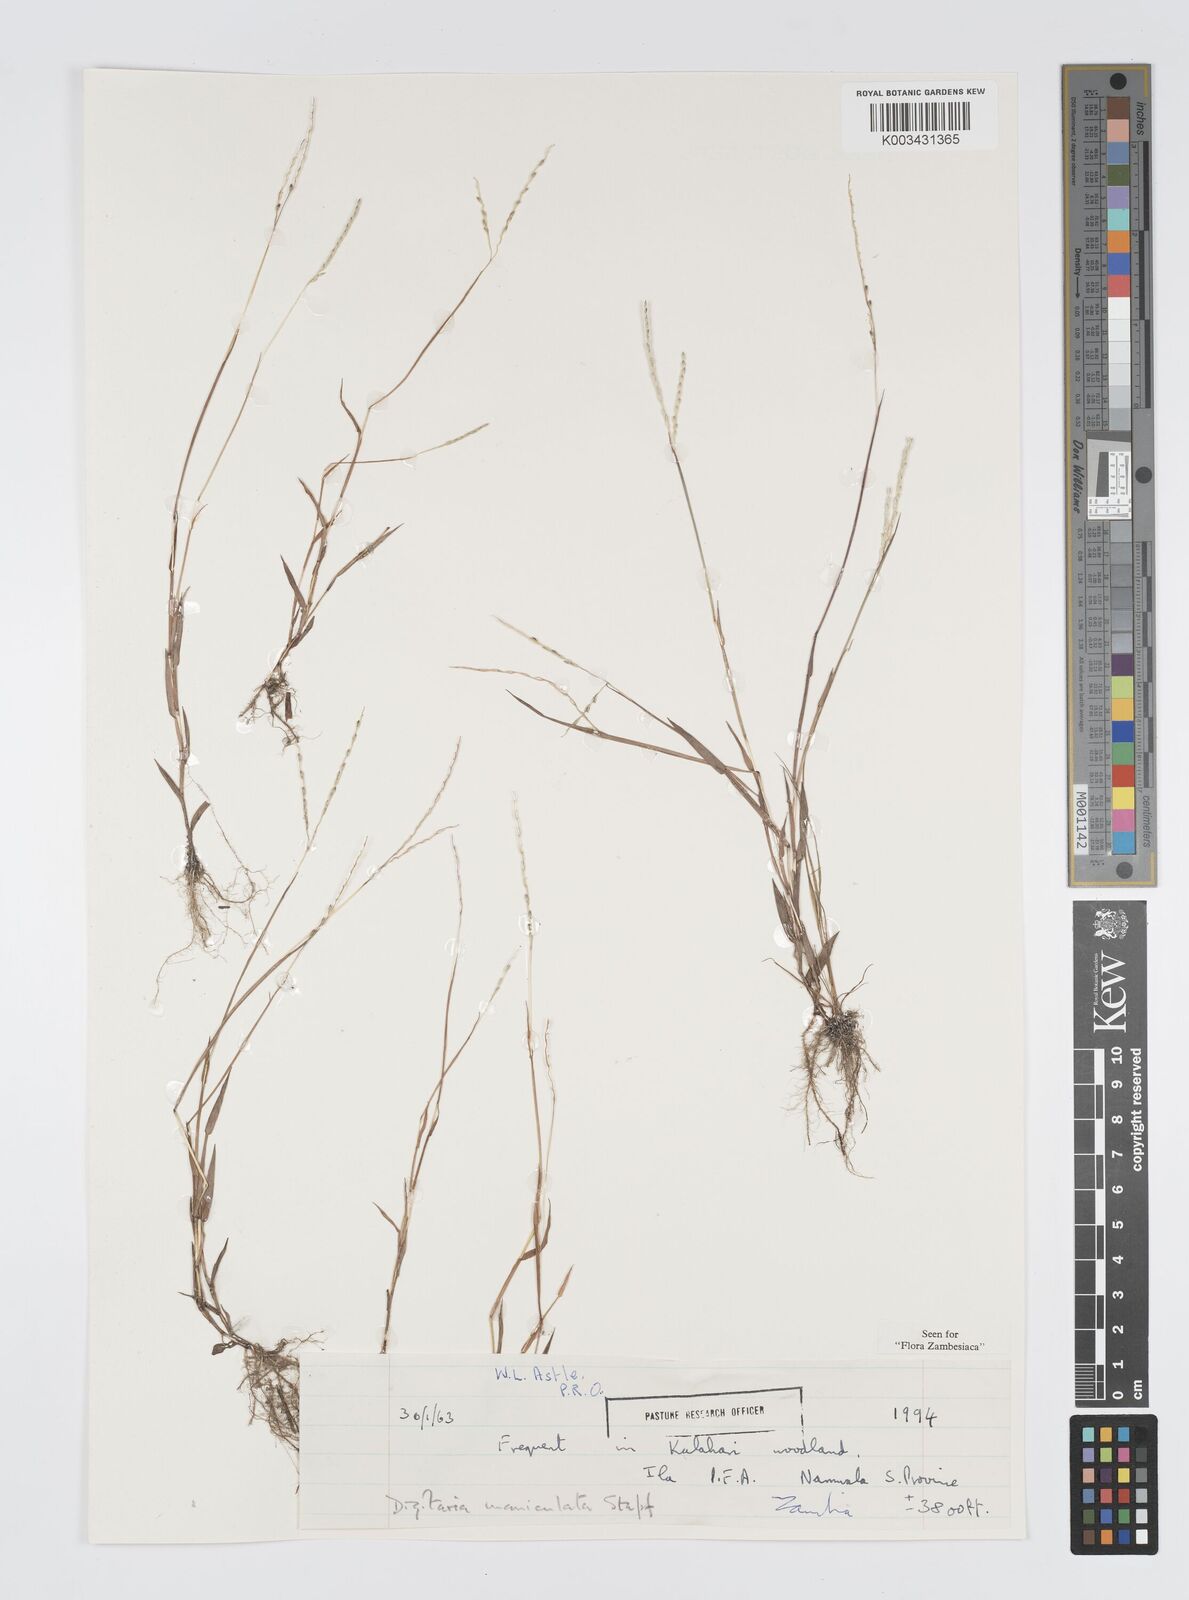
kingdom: Plantae
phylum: Tracheophyta
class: Liliopsida
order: Poales
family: Poaceae
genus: Digitaria
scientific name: Digitaria maniculata
